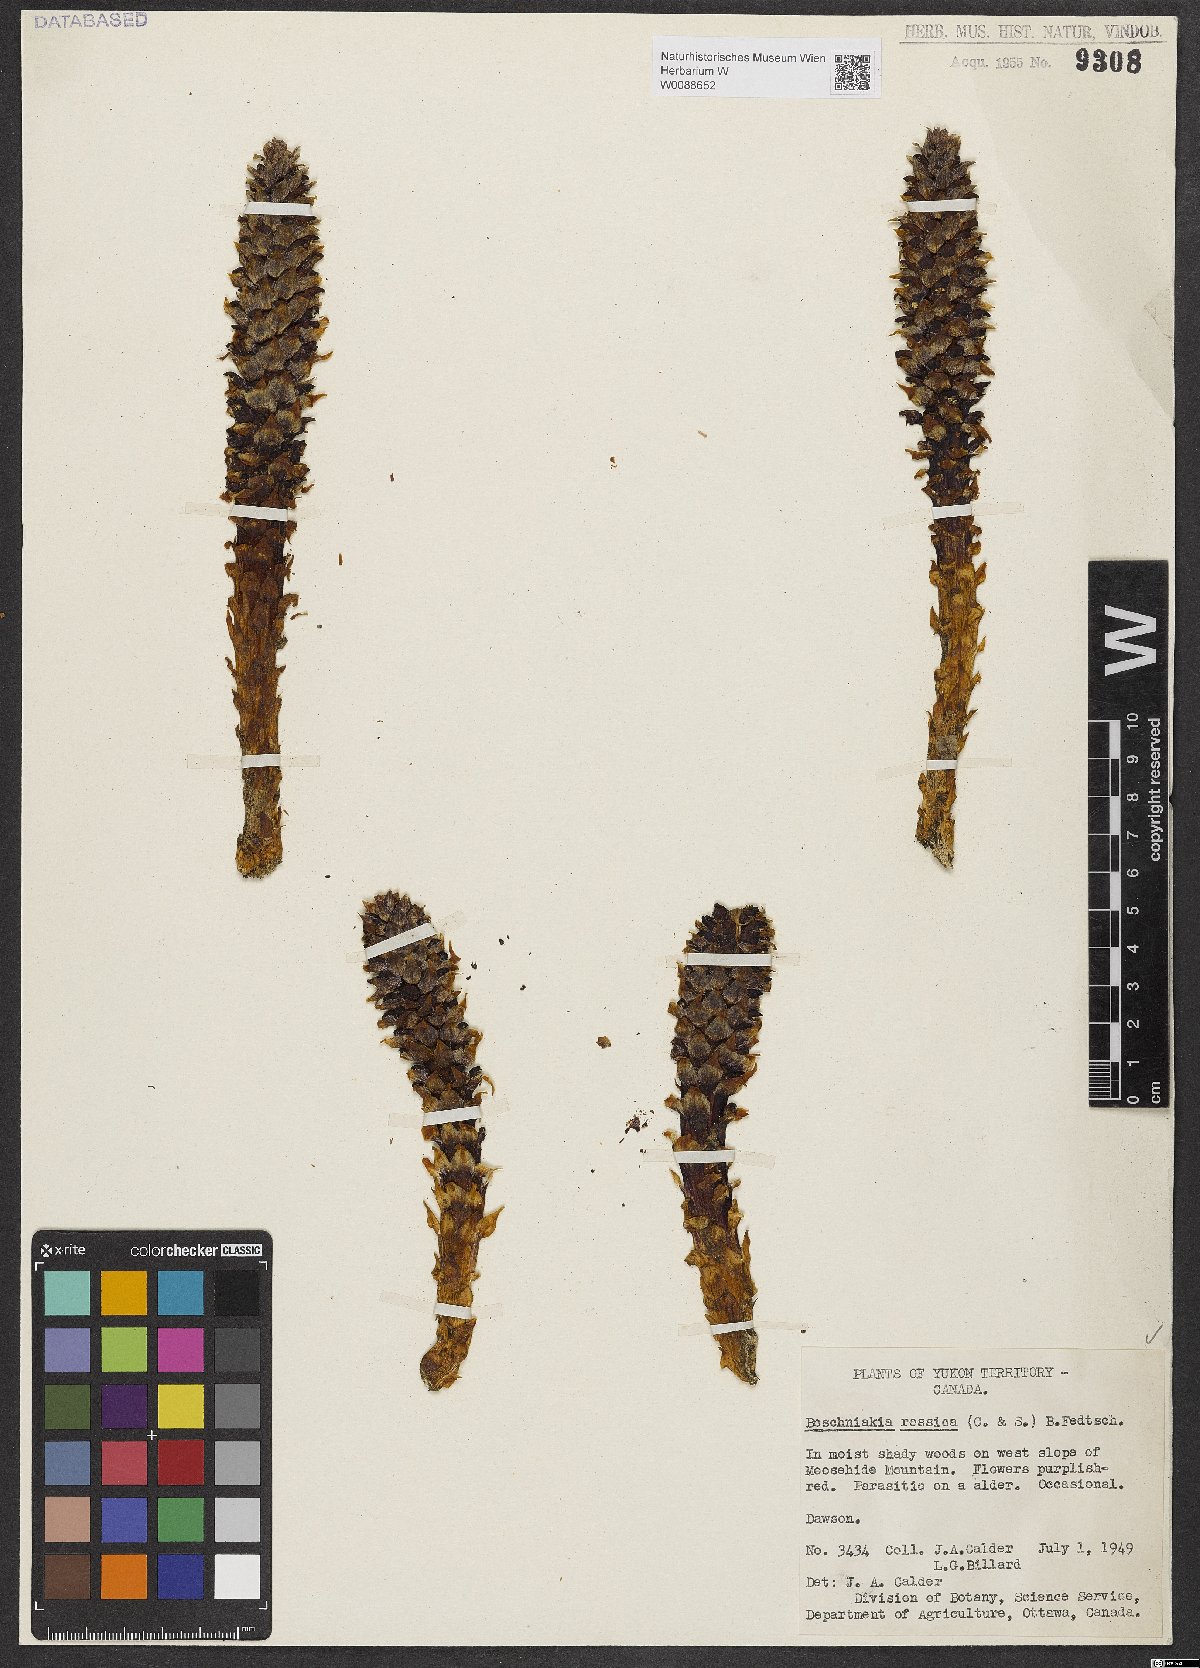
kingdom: Plantae
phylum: Tracheophyta
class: Magnoliopsida
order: Lamiales
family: Orobanchaceae
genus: Boschniakia
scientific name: Boschniakia rossica
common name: Poque
